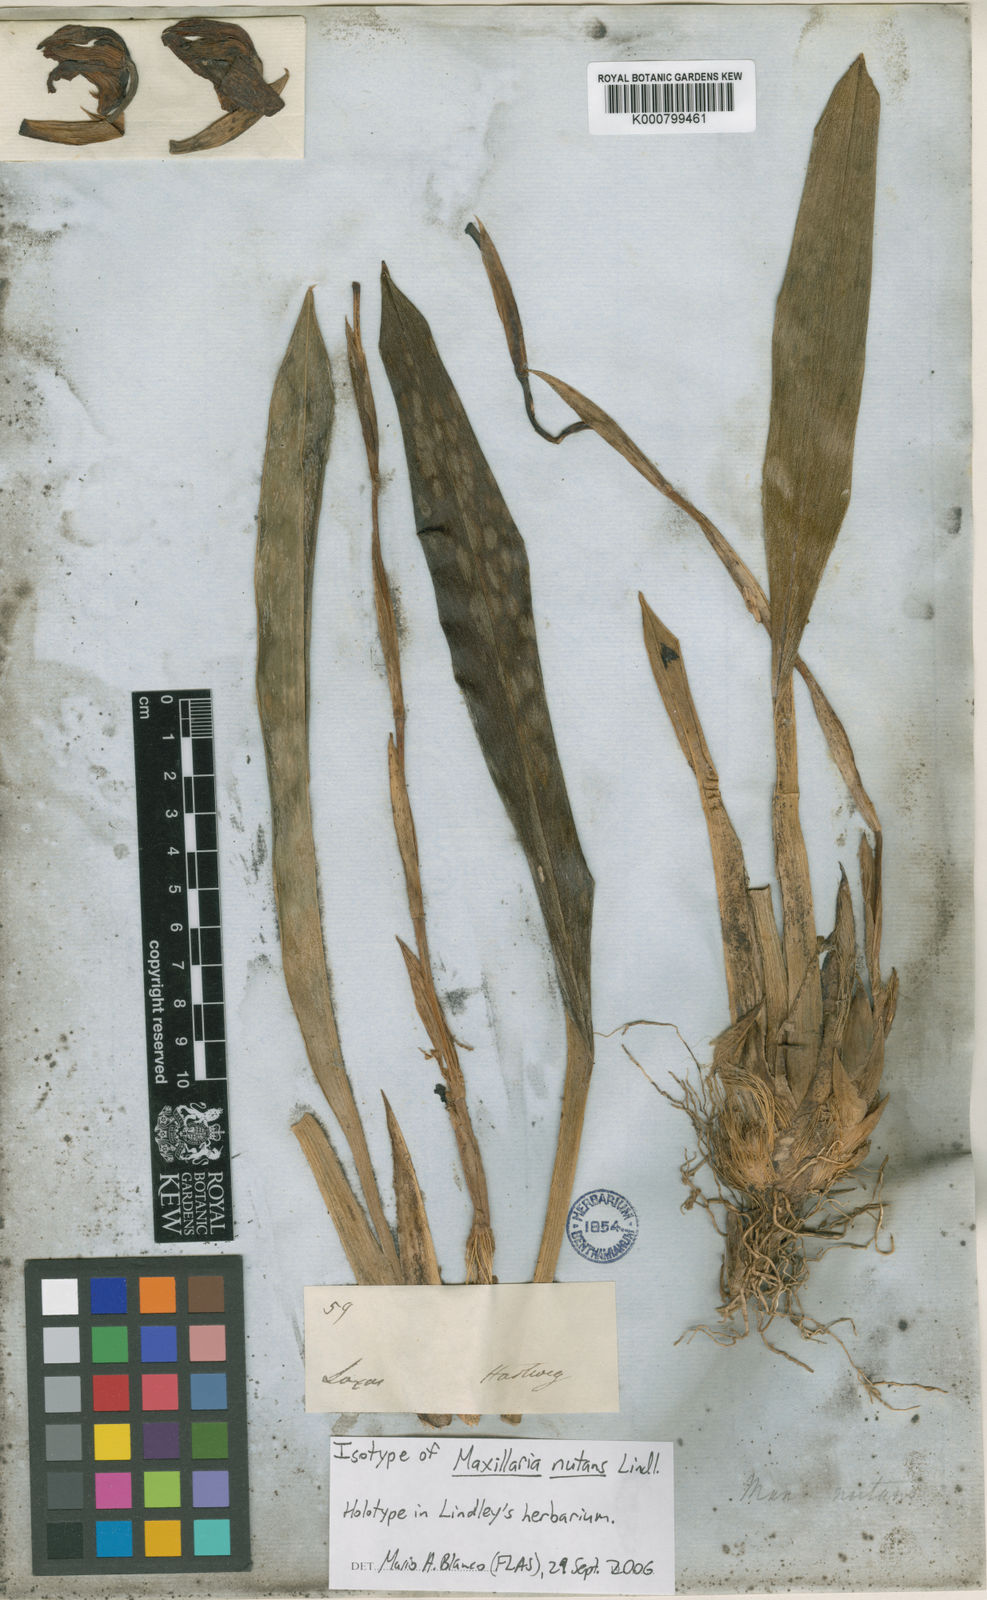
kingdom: Plantae
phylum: Tracheophyta
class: Liliopsida
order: Asparagales
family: Orchidaceae
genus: Maxillaria
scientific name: Maxillaria nutans
